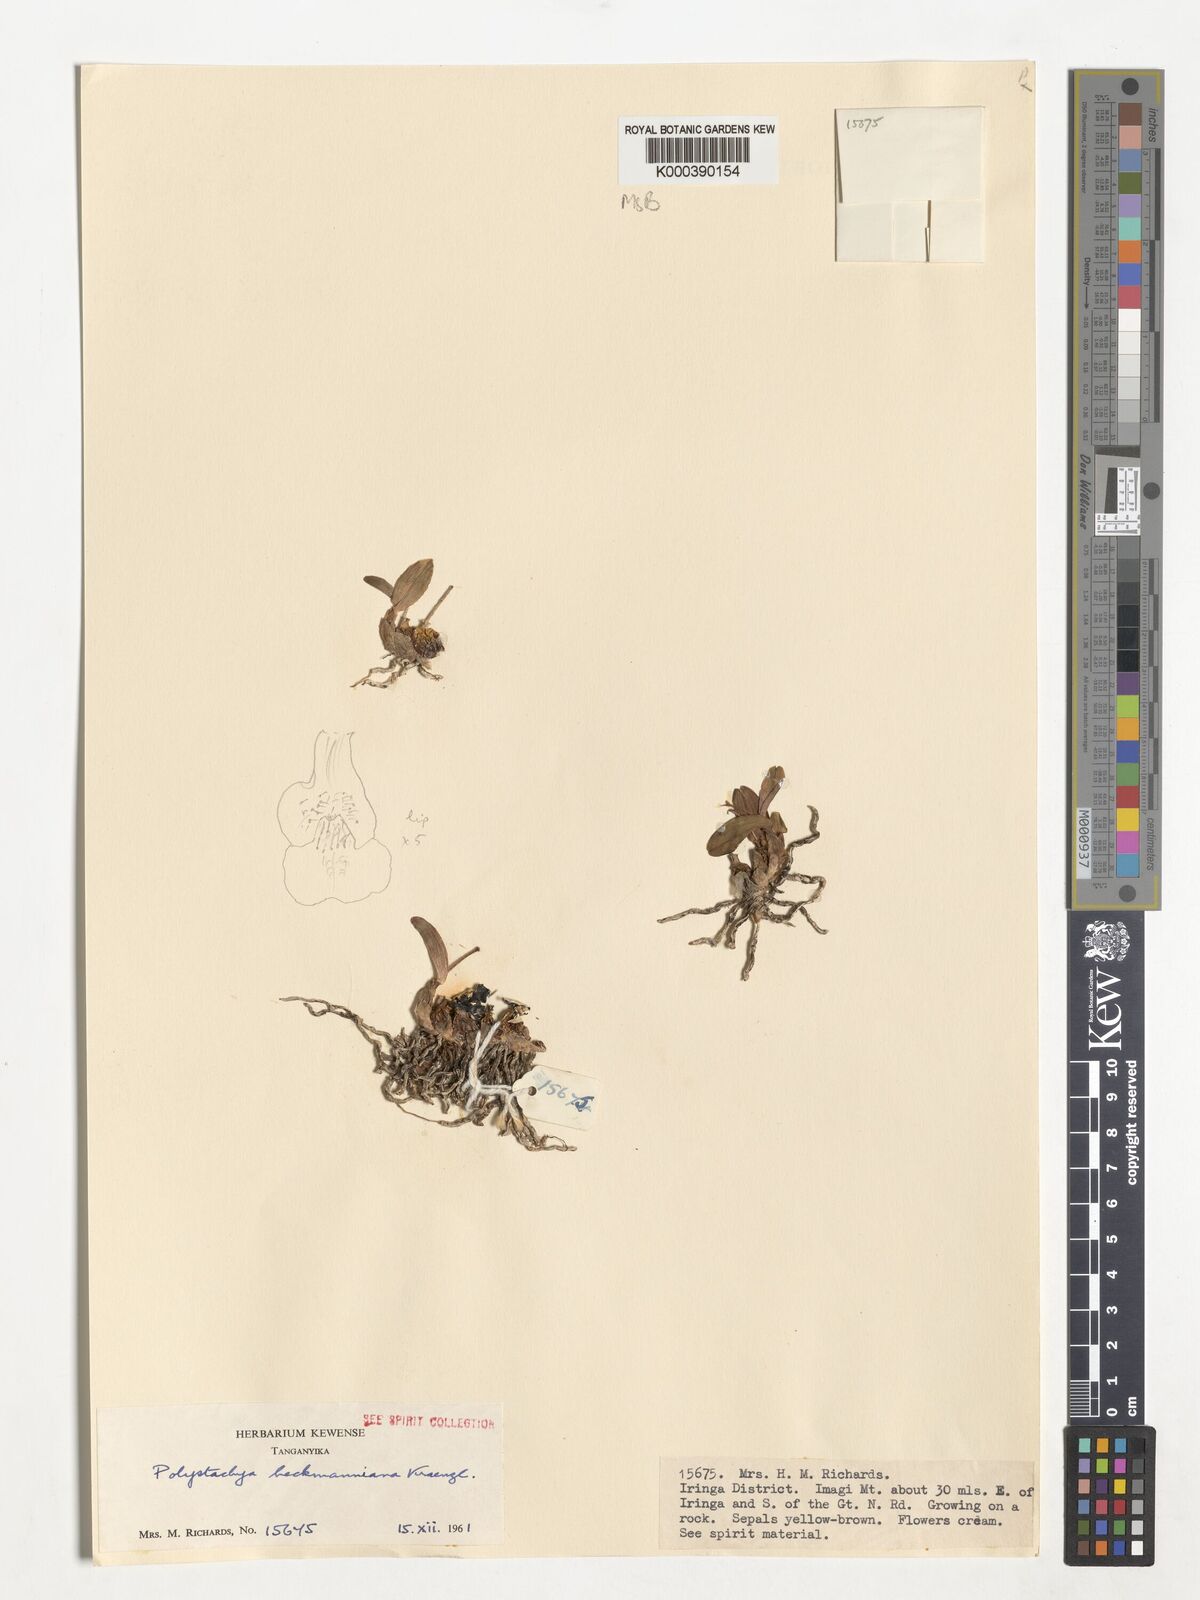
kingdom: Plantae
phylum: Tracheophyta
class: Liliopsida
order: Asparagales
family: Orchidaceae
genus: Polystachya
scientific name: Polystachya heckmanniana
